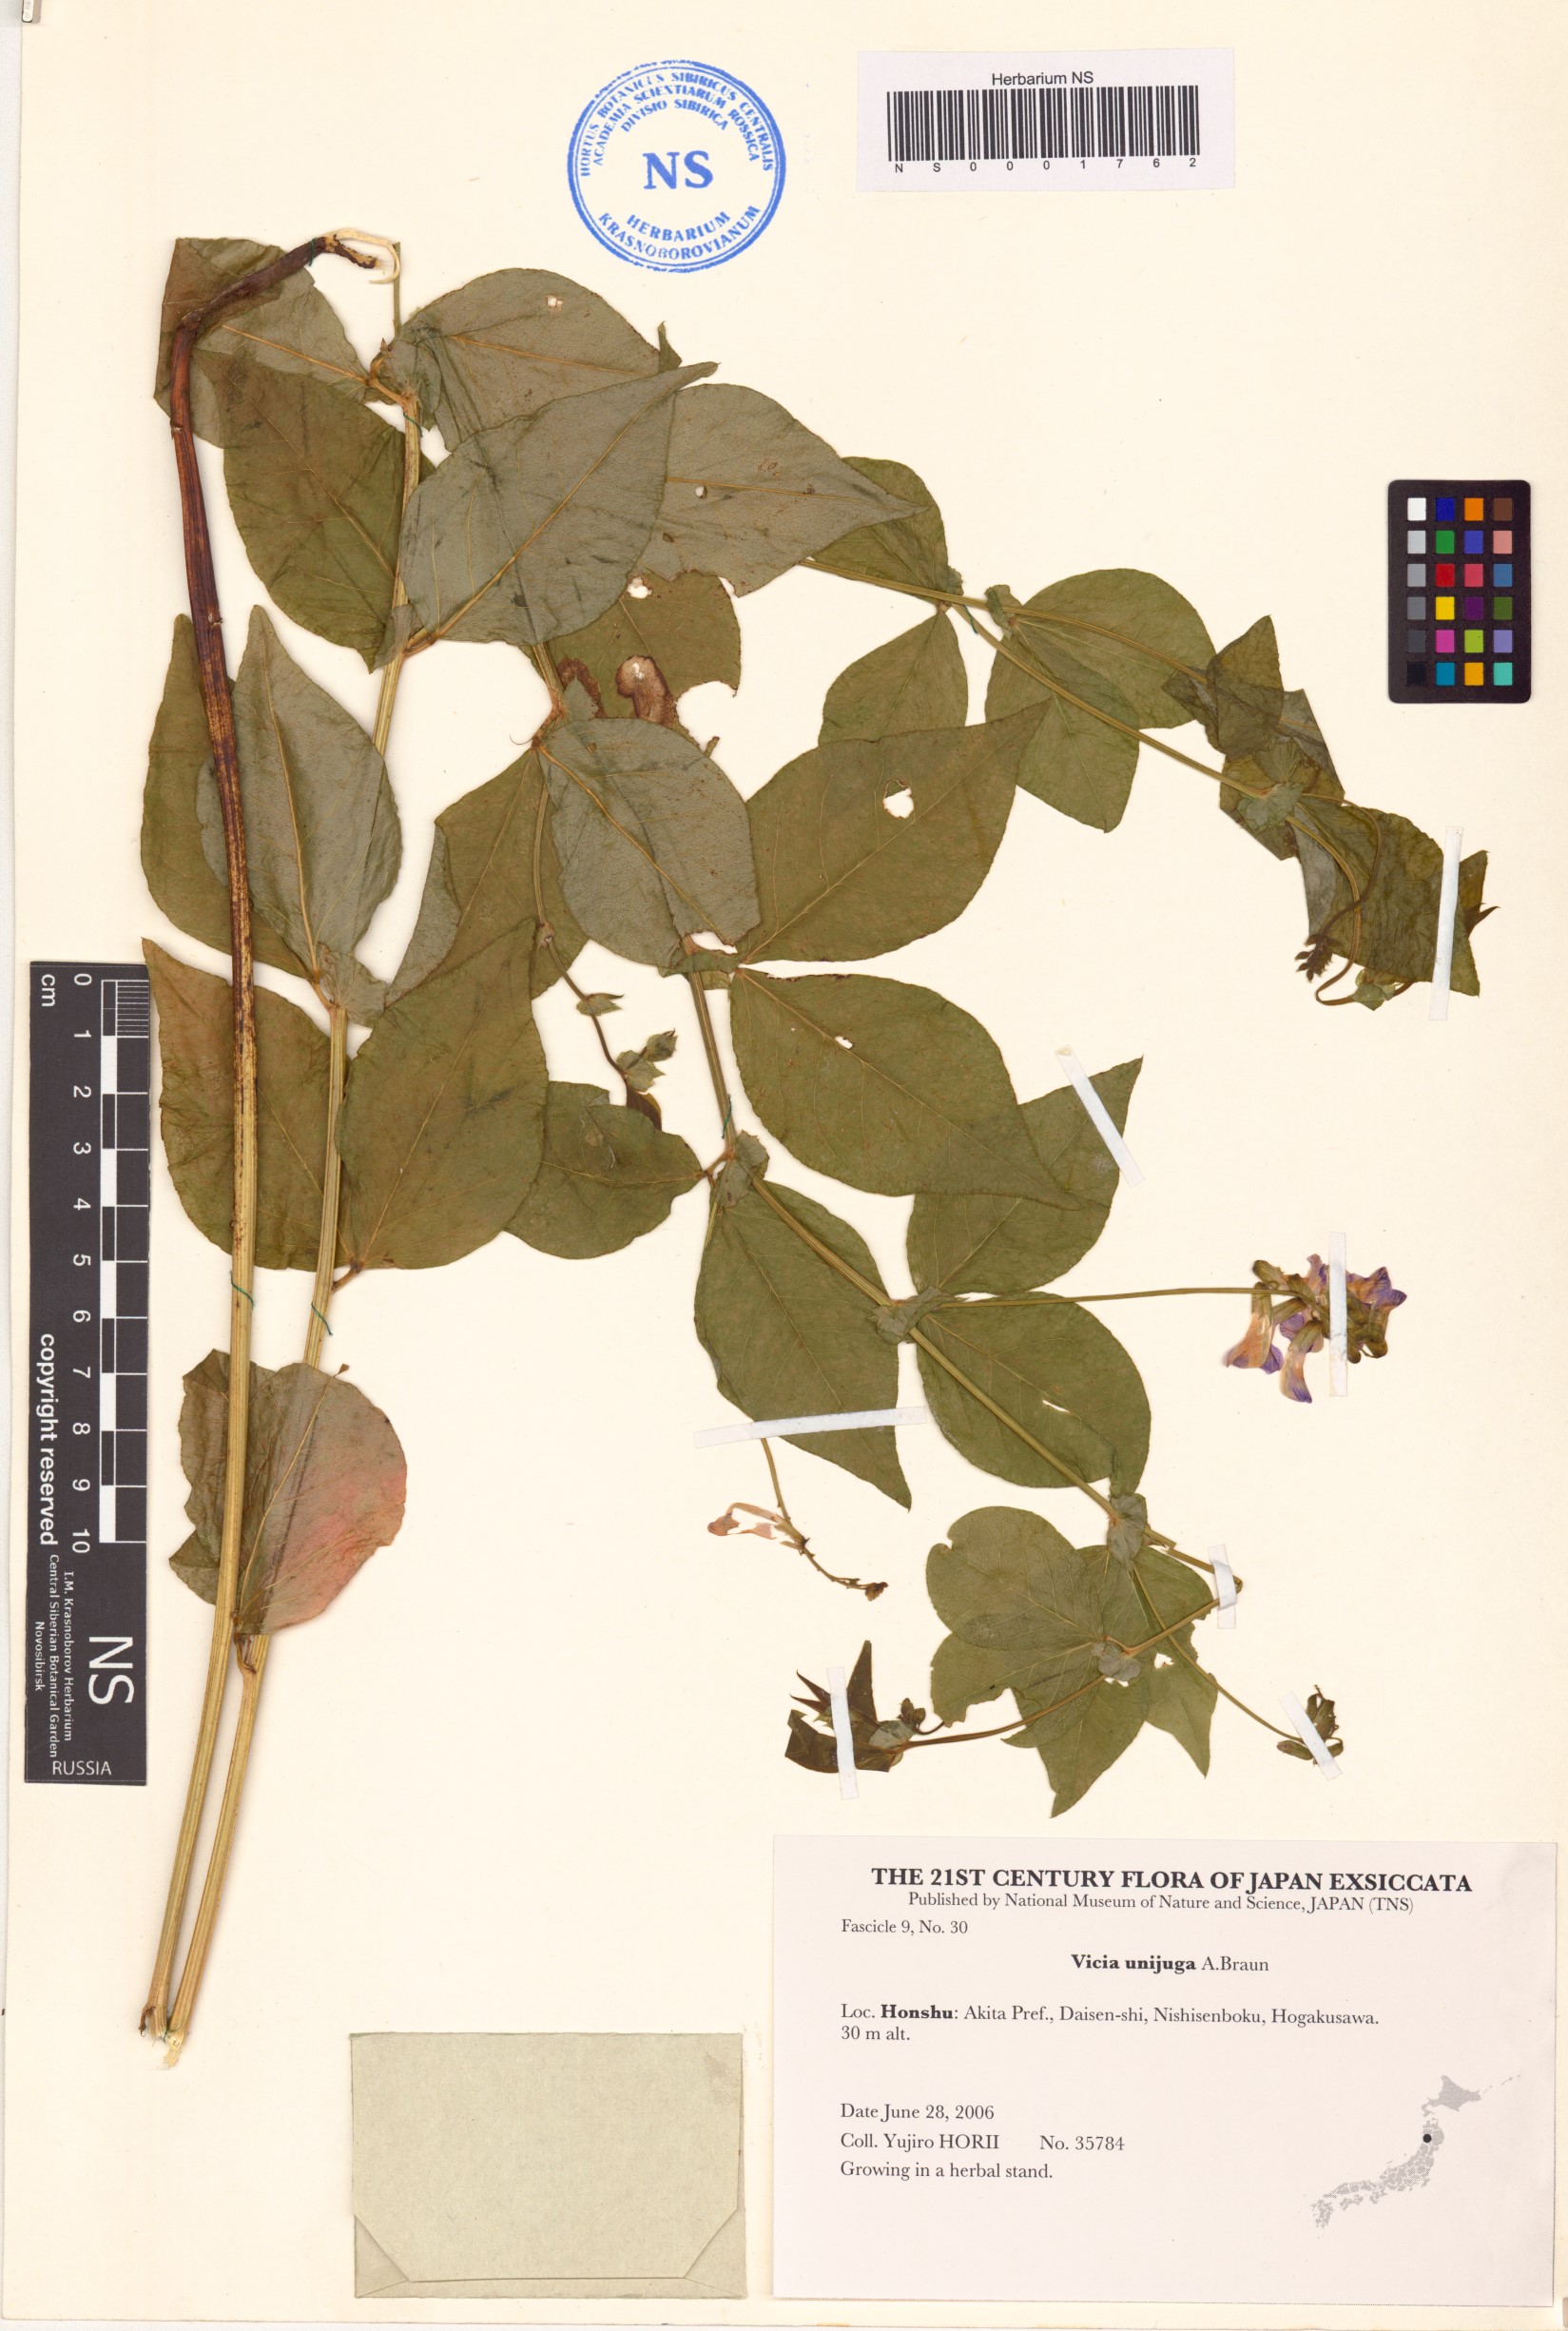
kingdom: Plantae
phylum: Tracheophyta
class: Magnoliopsida
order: Fabales
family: Fabaceae
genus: Vicia
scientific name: Vicia unijuga
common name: Two-leaf vetch
